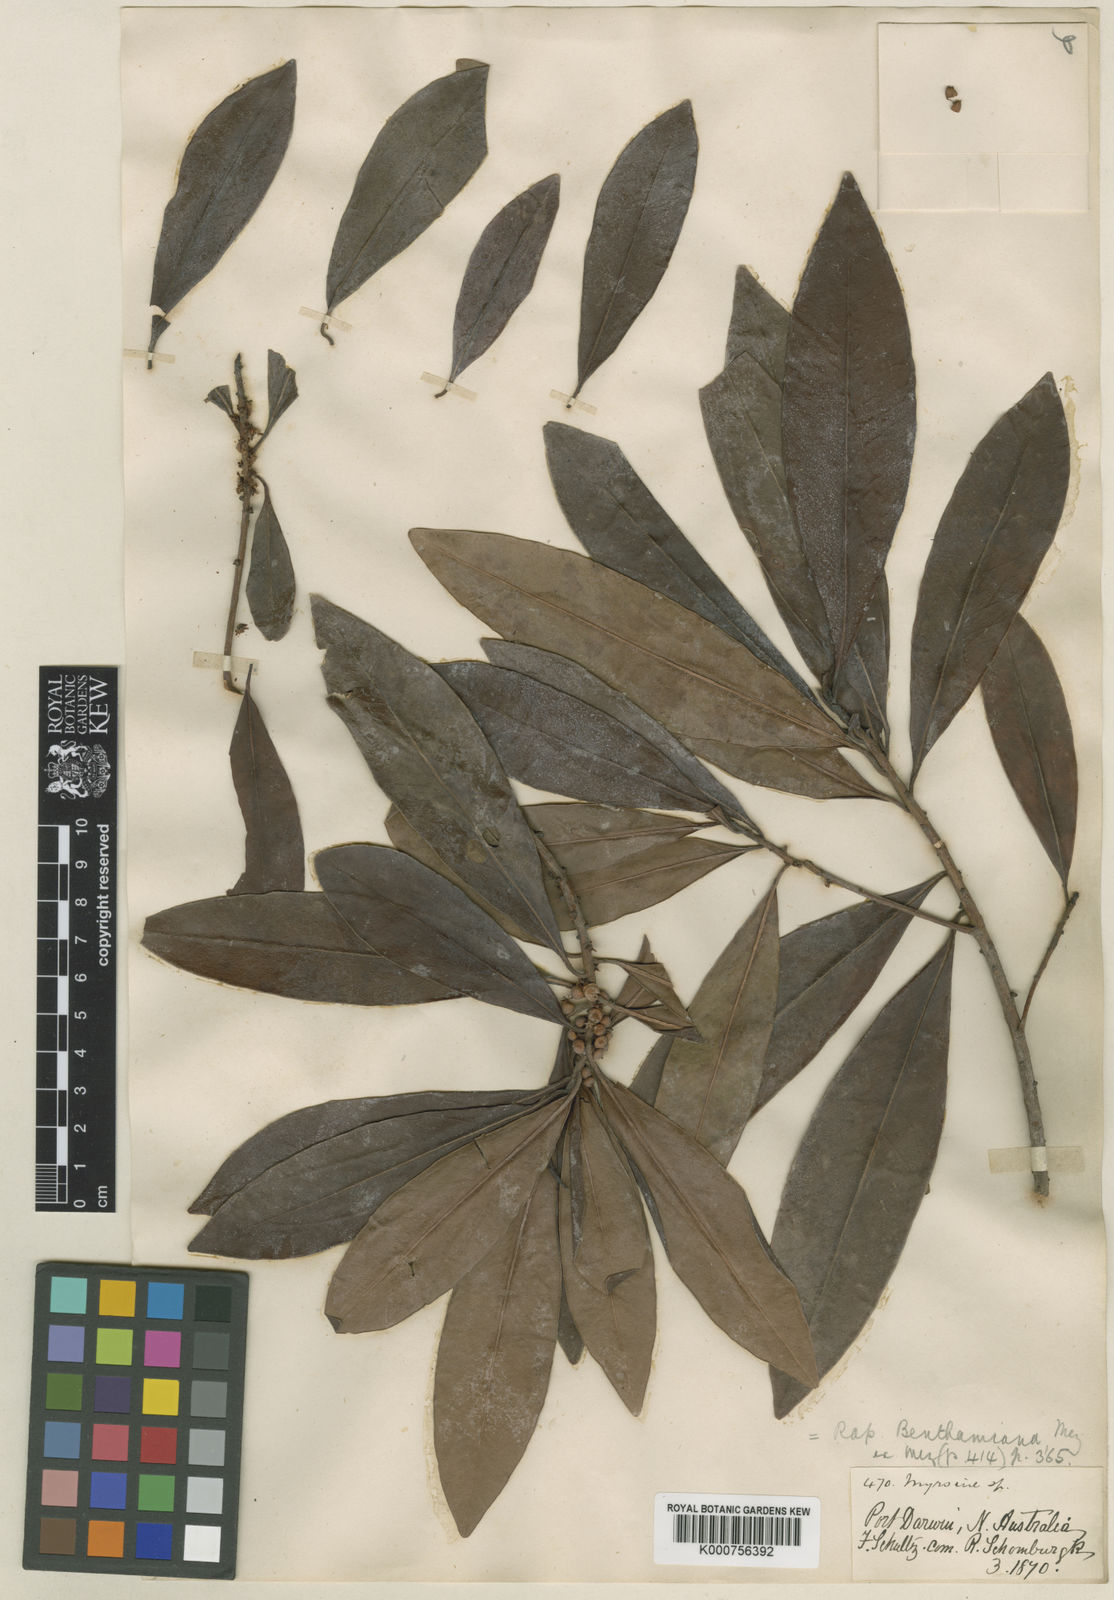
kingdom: Plantae
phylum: Tracheophyta
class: Magnoliopsida
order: Ericales
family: Primulaceae
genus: Myrsine
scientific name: Myrsine benthamiana
